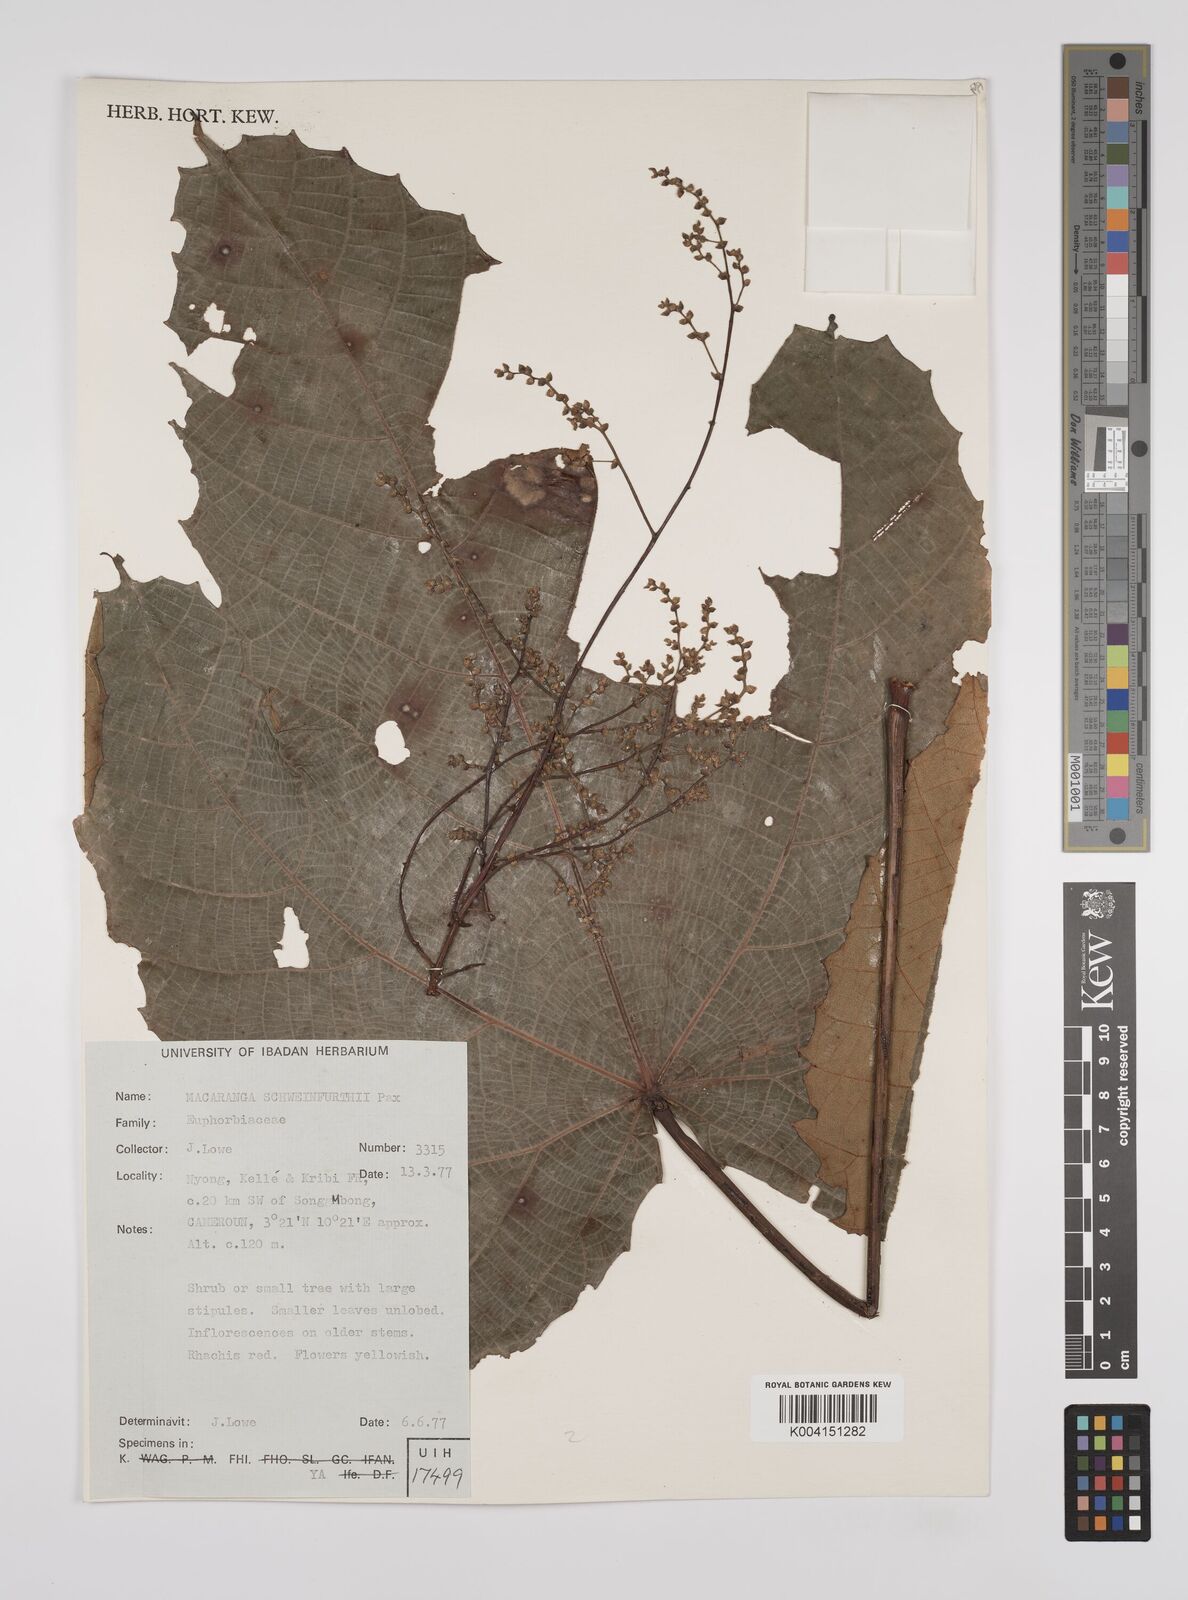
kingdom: Plantae
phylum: Tracheophyta
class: Magnoliopsida
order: Malpighiales
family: Euphorbiaceae
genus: Macaranga
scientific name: Macaranga schweinfurthii
